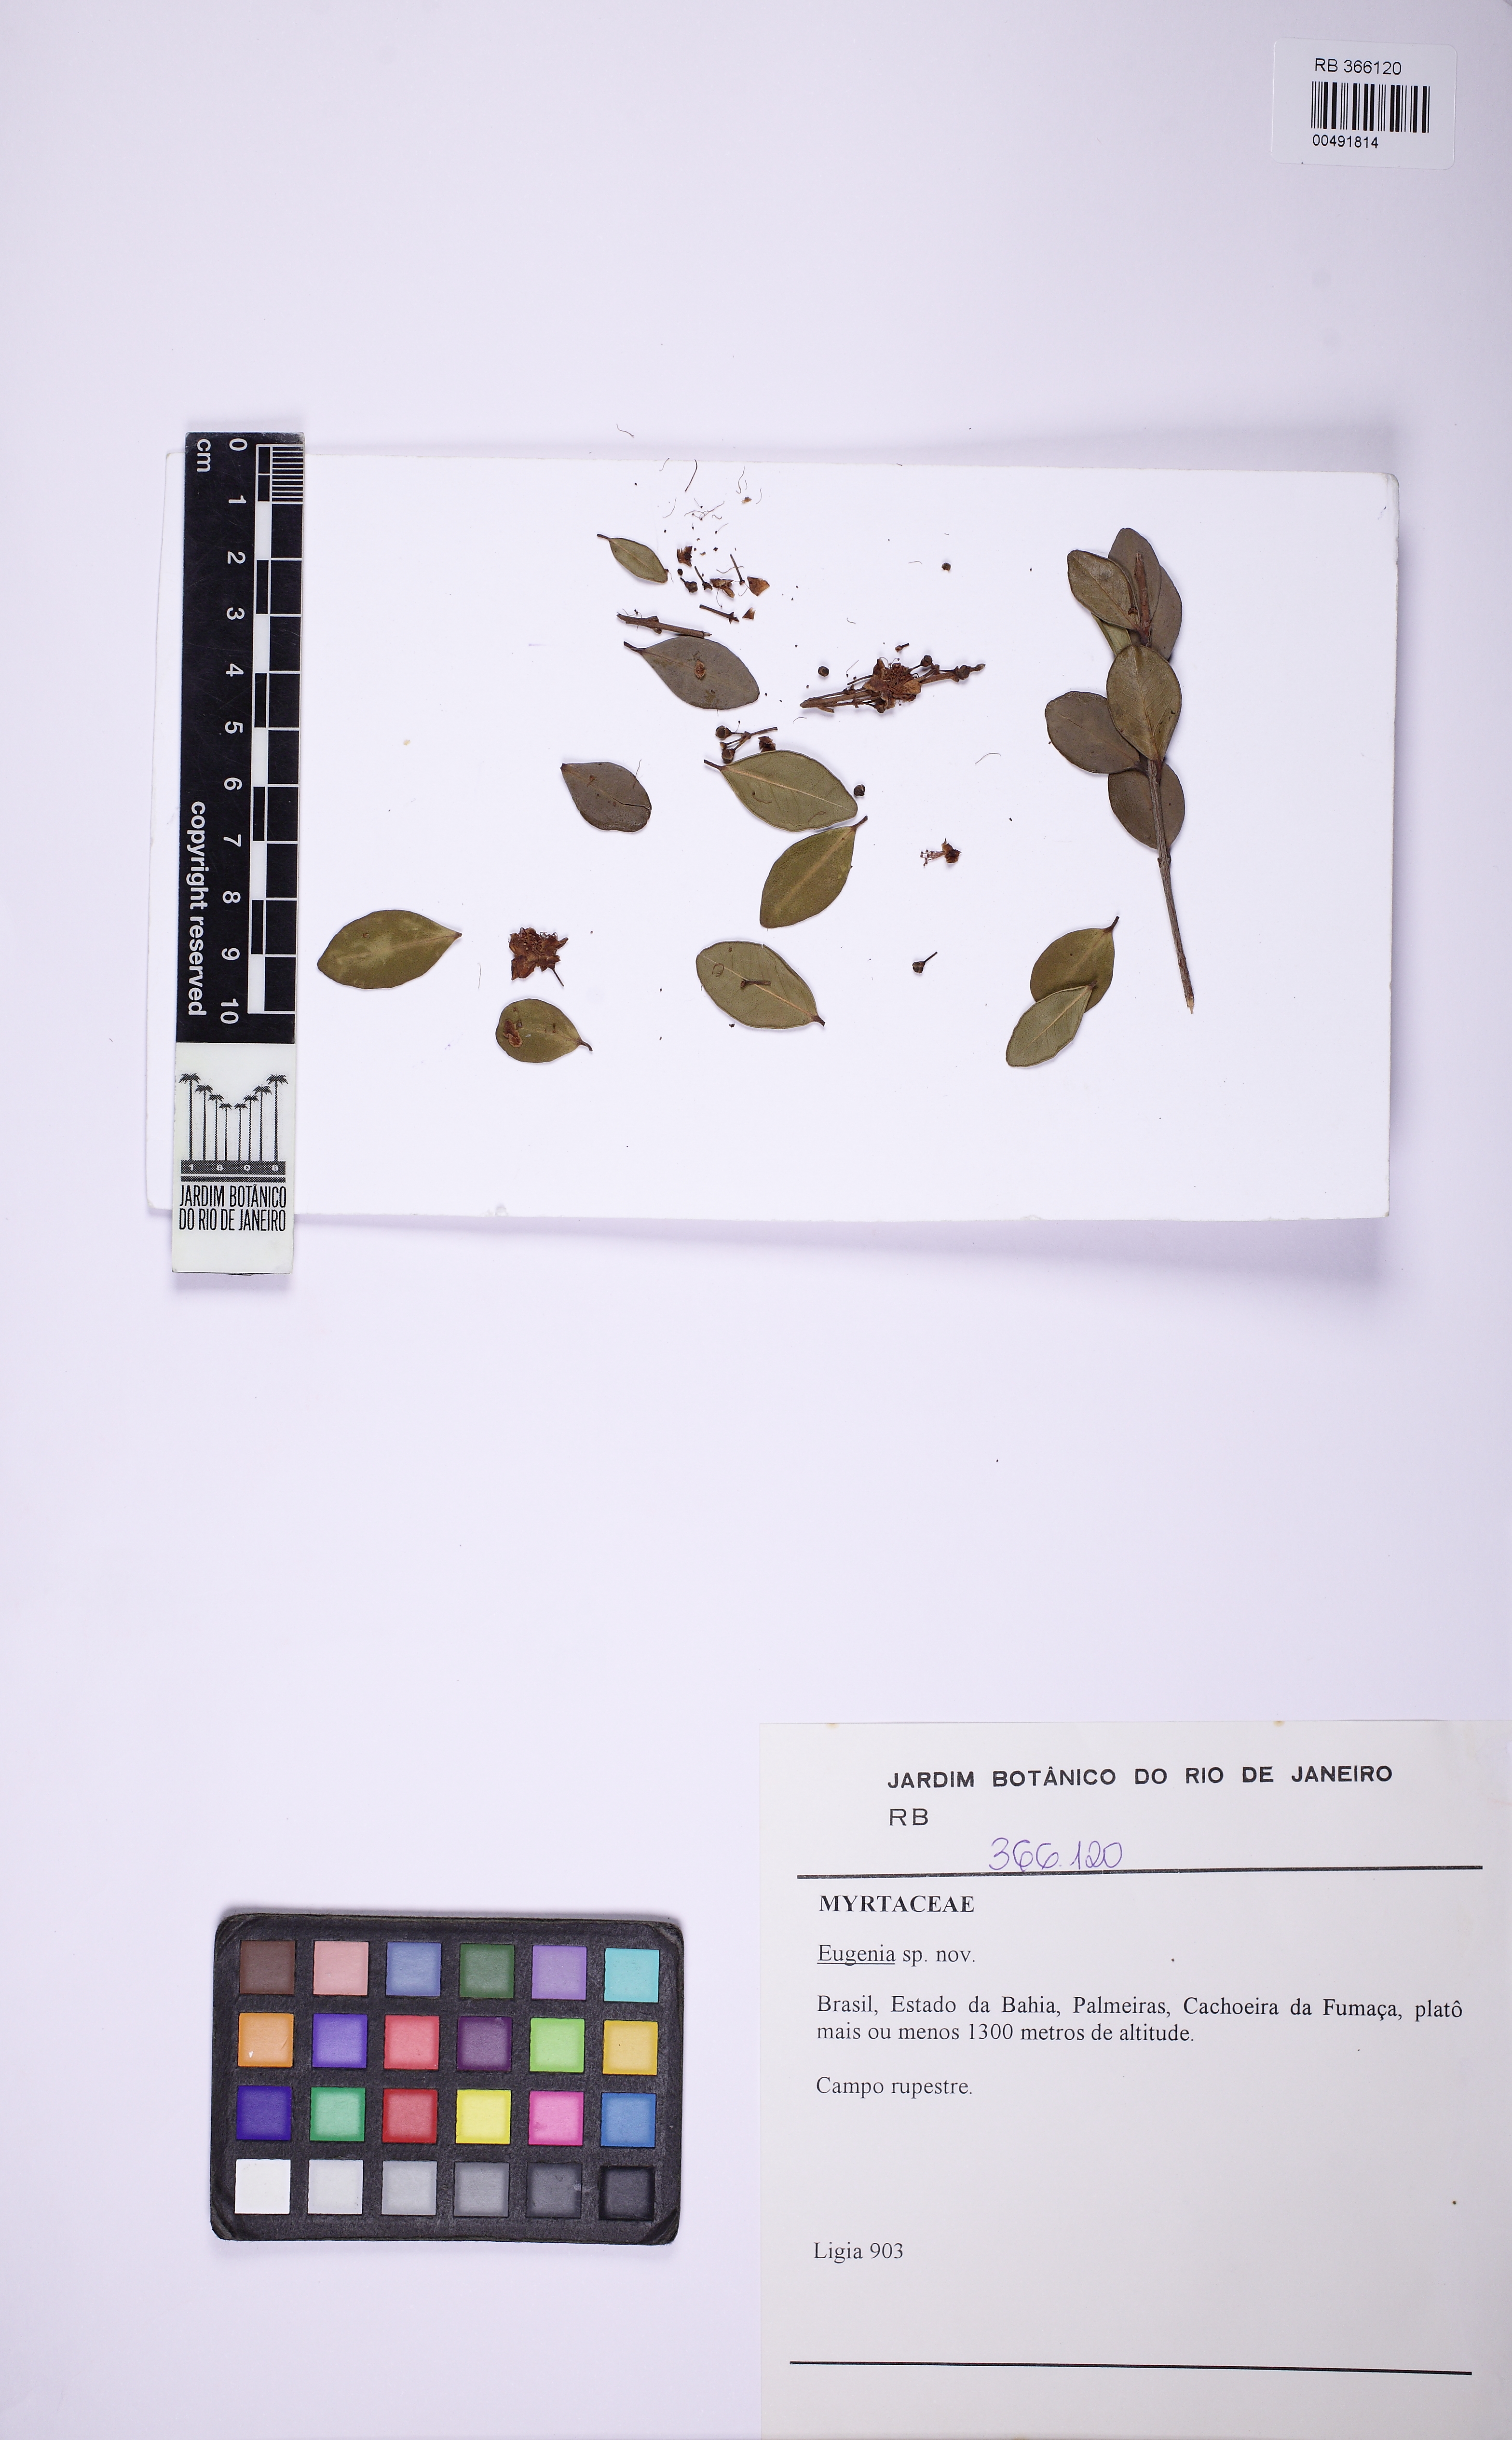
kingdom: Plantae
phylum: Tracheophyta
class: Magnoliopsida
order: Myrtales
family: Myrtaceae
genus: Eugenia
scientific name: Eugenia modesta
